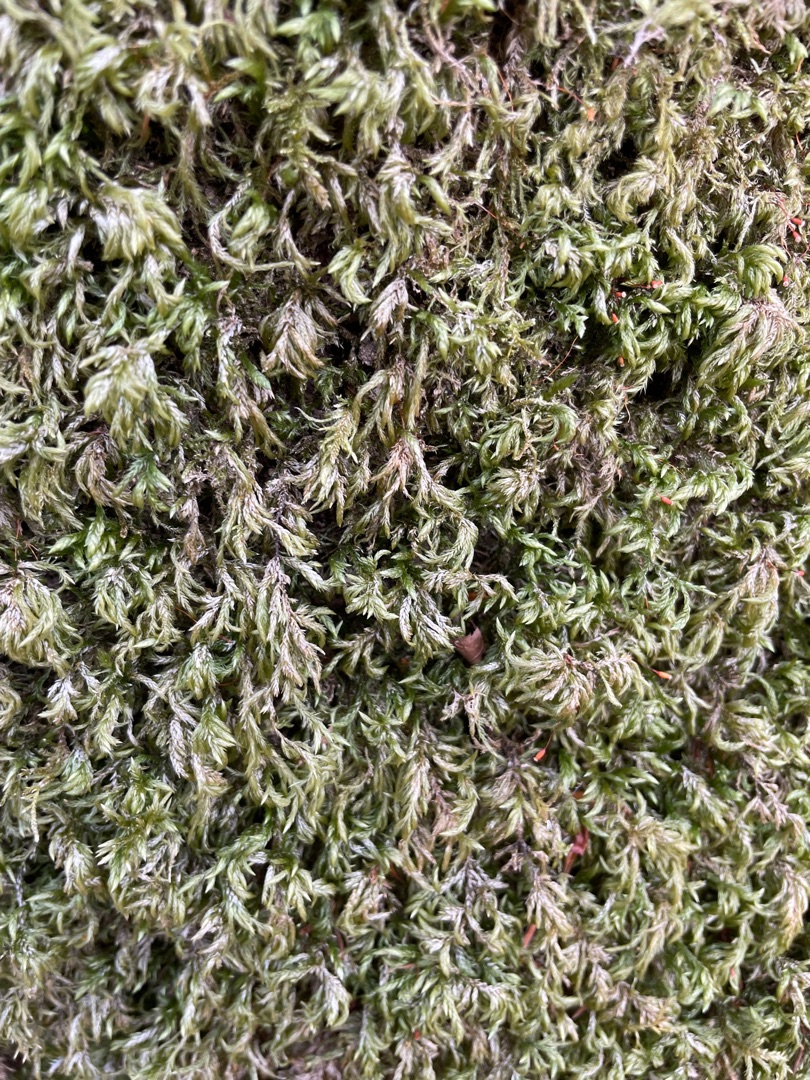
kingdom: Plantae
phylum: Bryophyta
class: Bryopsida
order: Hypnales
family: Lembophyllaceae
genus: Isothecium
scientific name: Isothecium alopecuroides
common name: Stor stammemos
